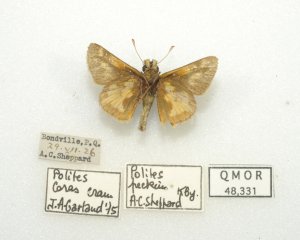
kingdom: Animalia
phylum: Arthropoda
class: Insecta
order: Lepidoptera
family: Hesperiidae
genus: Polites
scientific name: Polites coras
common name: Peck's Skipper
